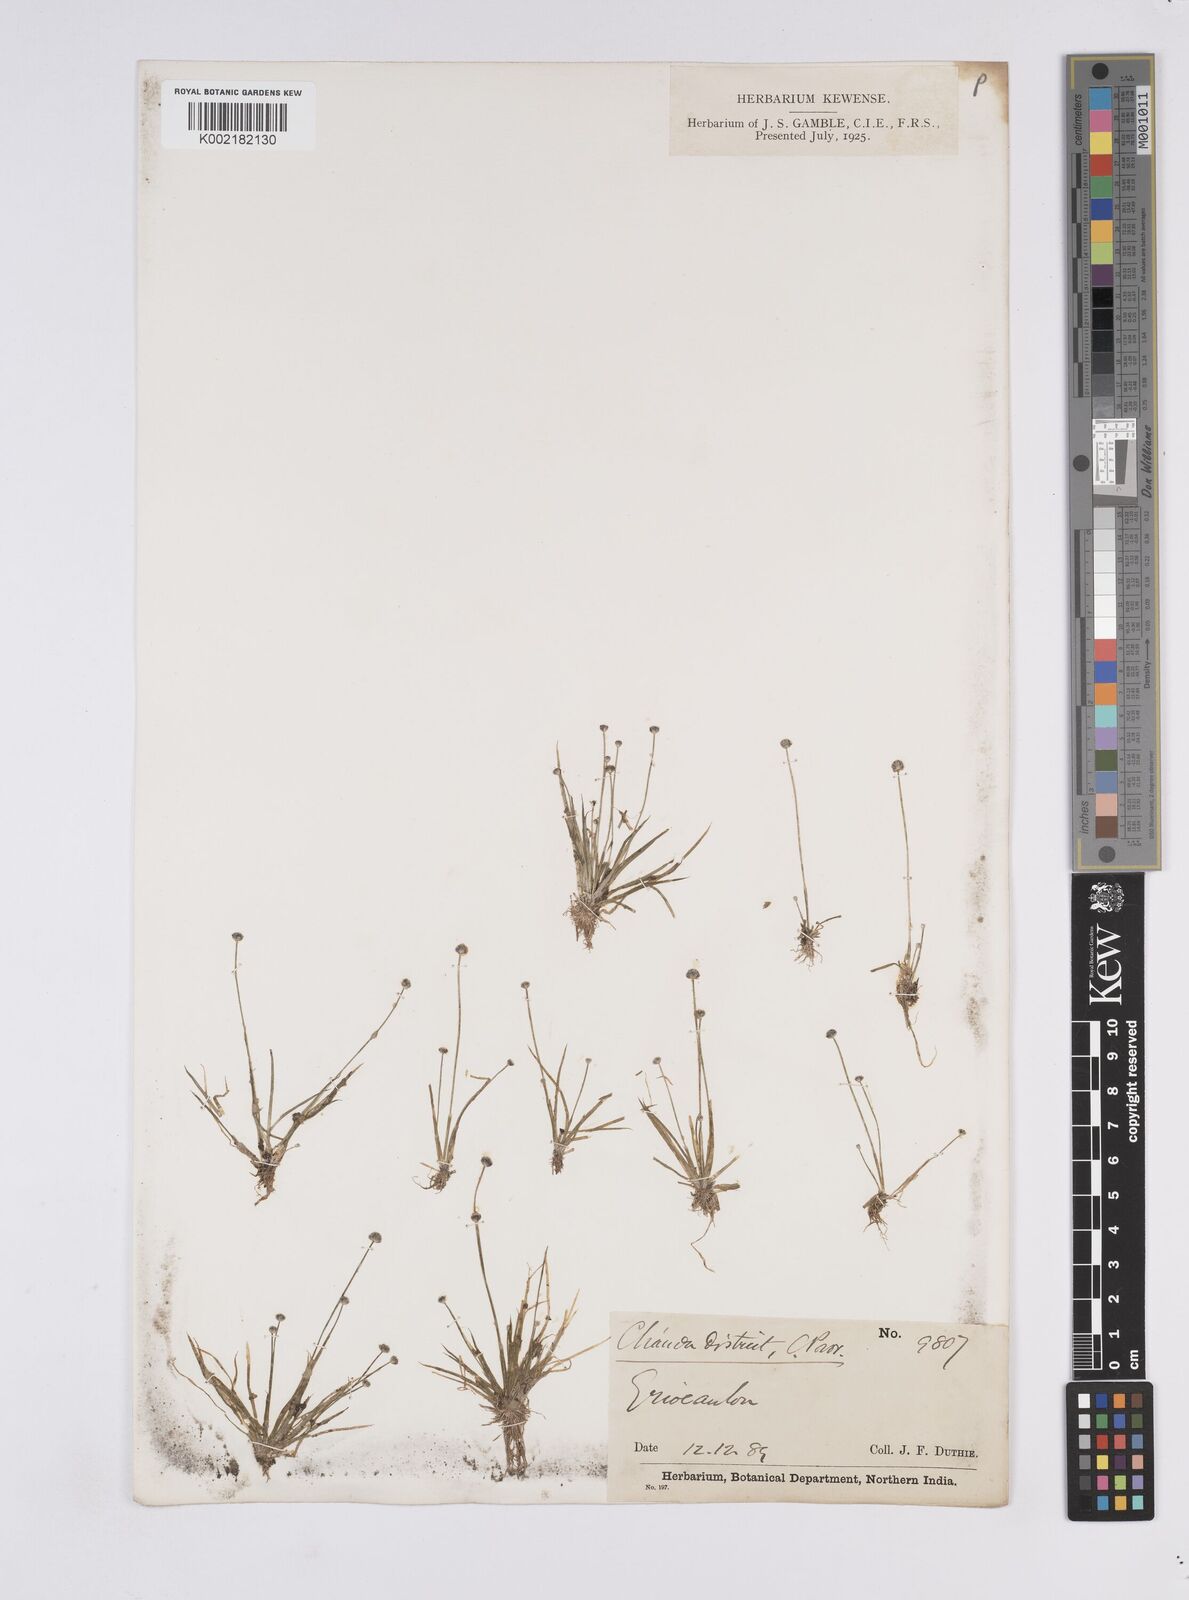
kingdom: Plantae
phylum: Tracheophyta
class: Liliopsida
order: Poales
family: Eriocaulaceae
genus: Eriocaulon
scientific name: Eriocaulon
